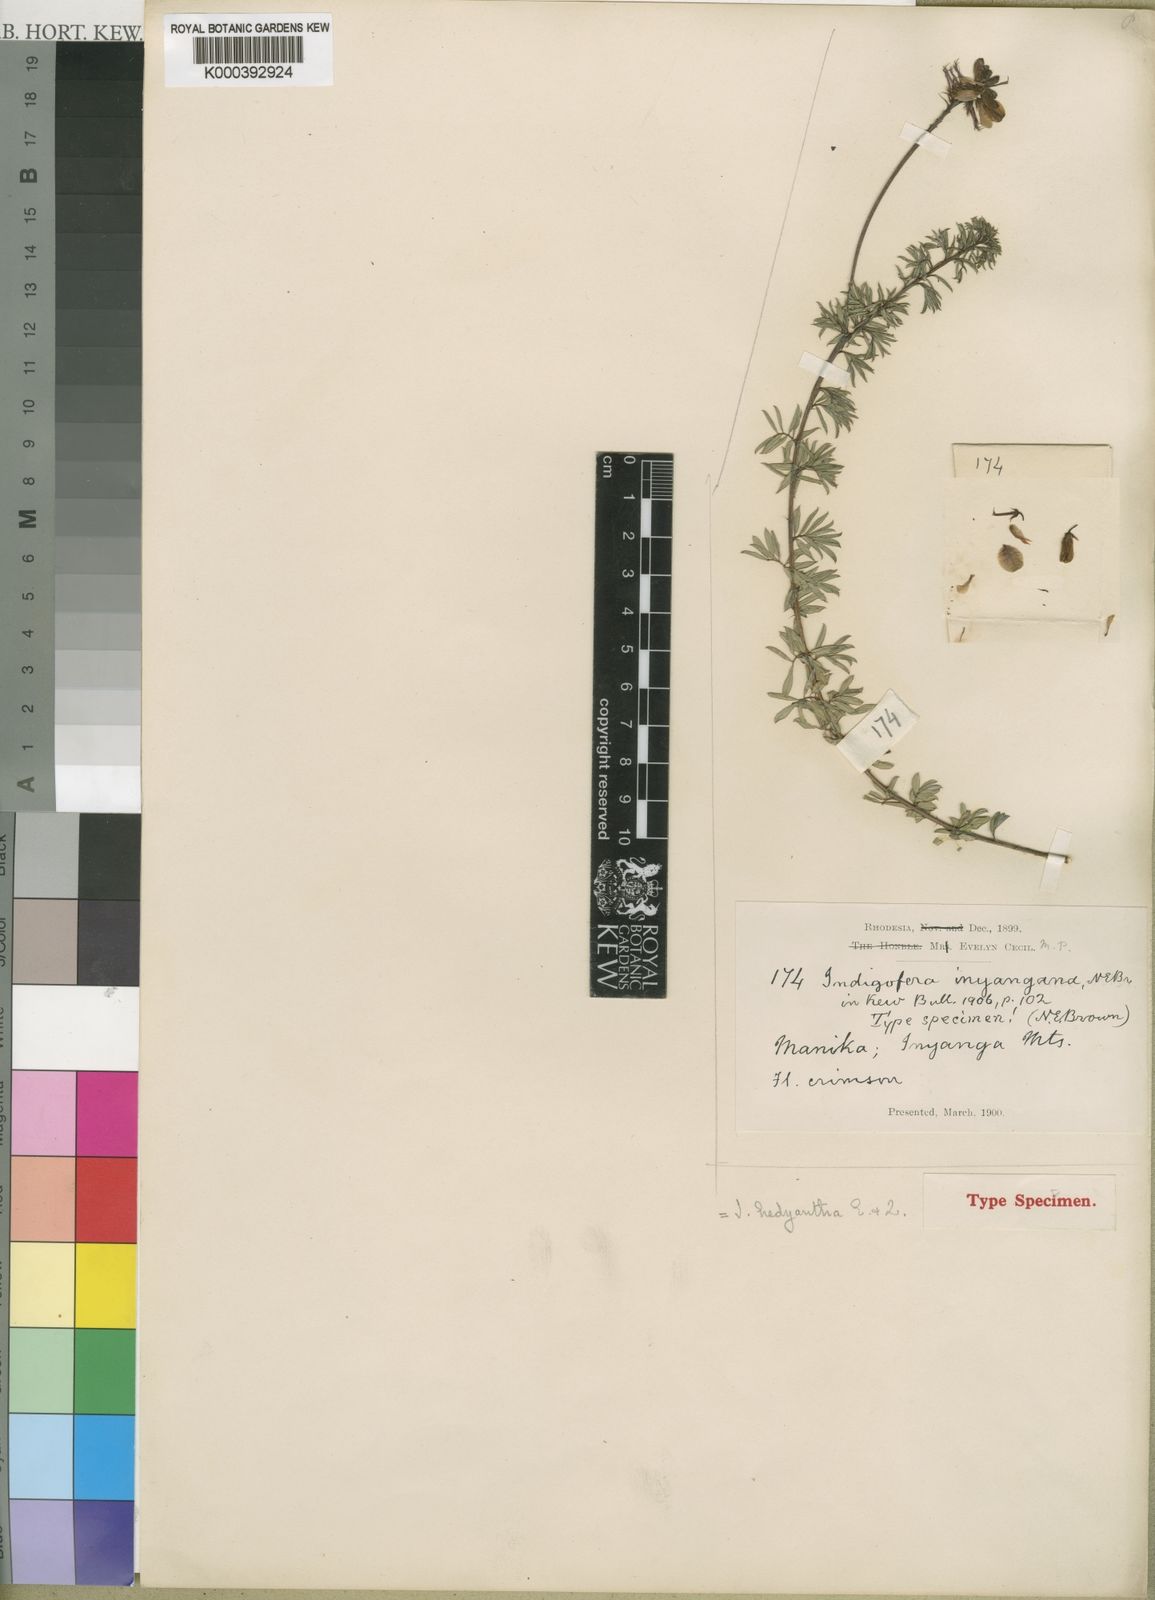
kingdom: Plantae
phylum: Tracheophyta
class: Magnoliopsida
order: Fabales
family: Fabaceae
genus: Indigofera
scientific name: Indigofera hedyantha
